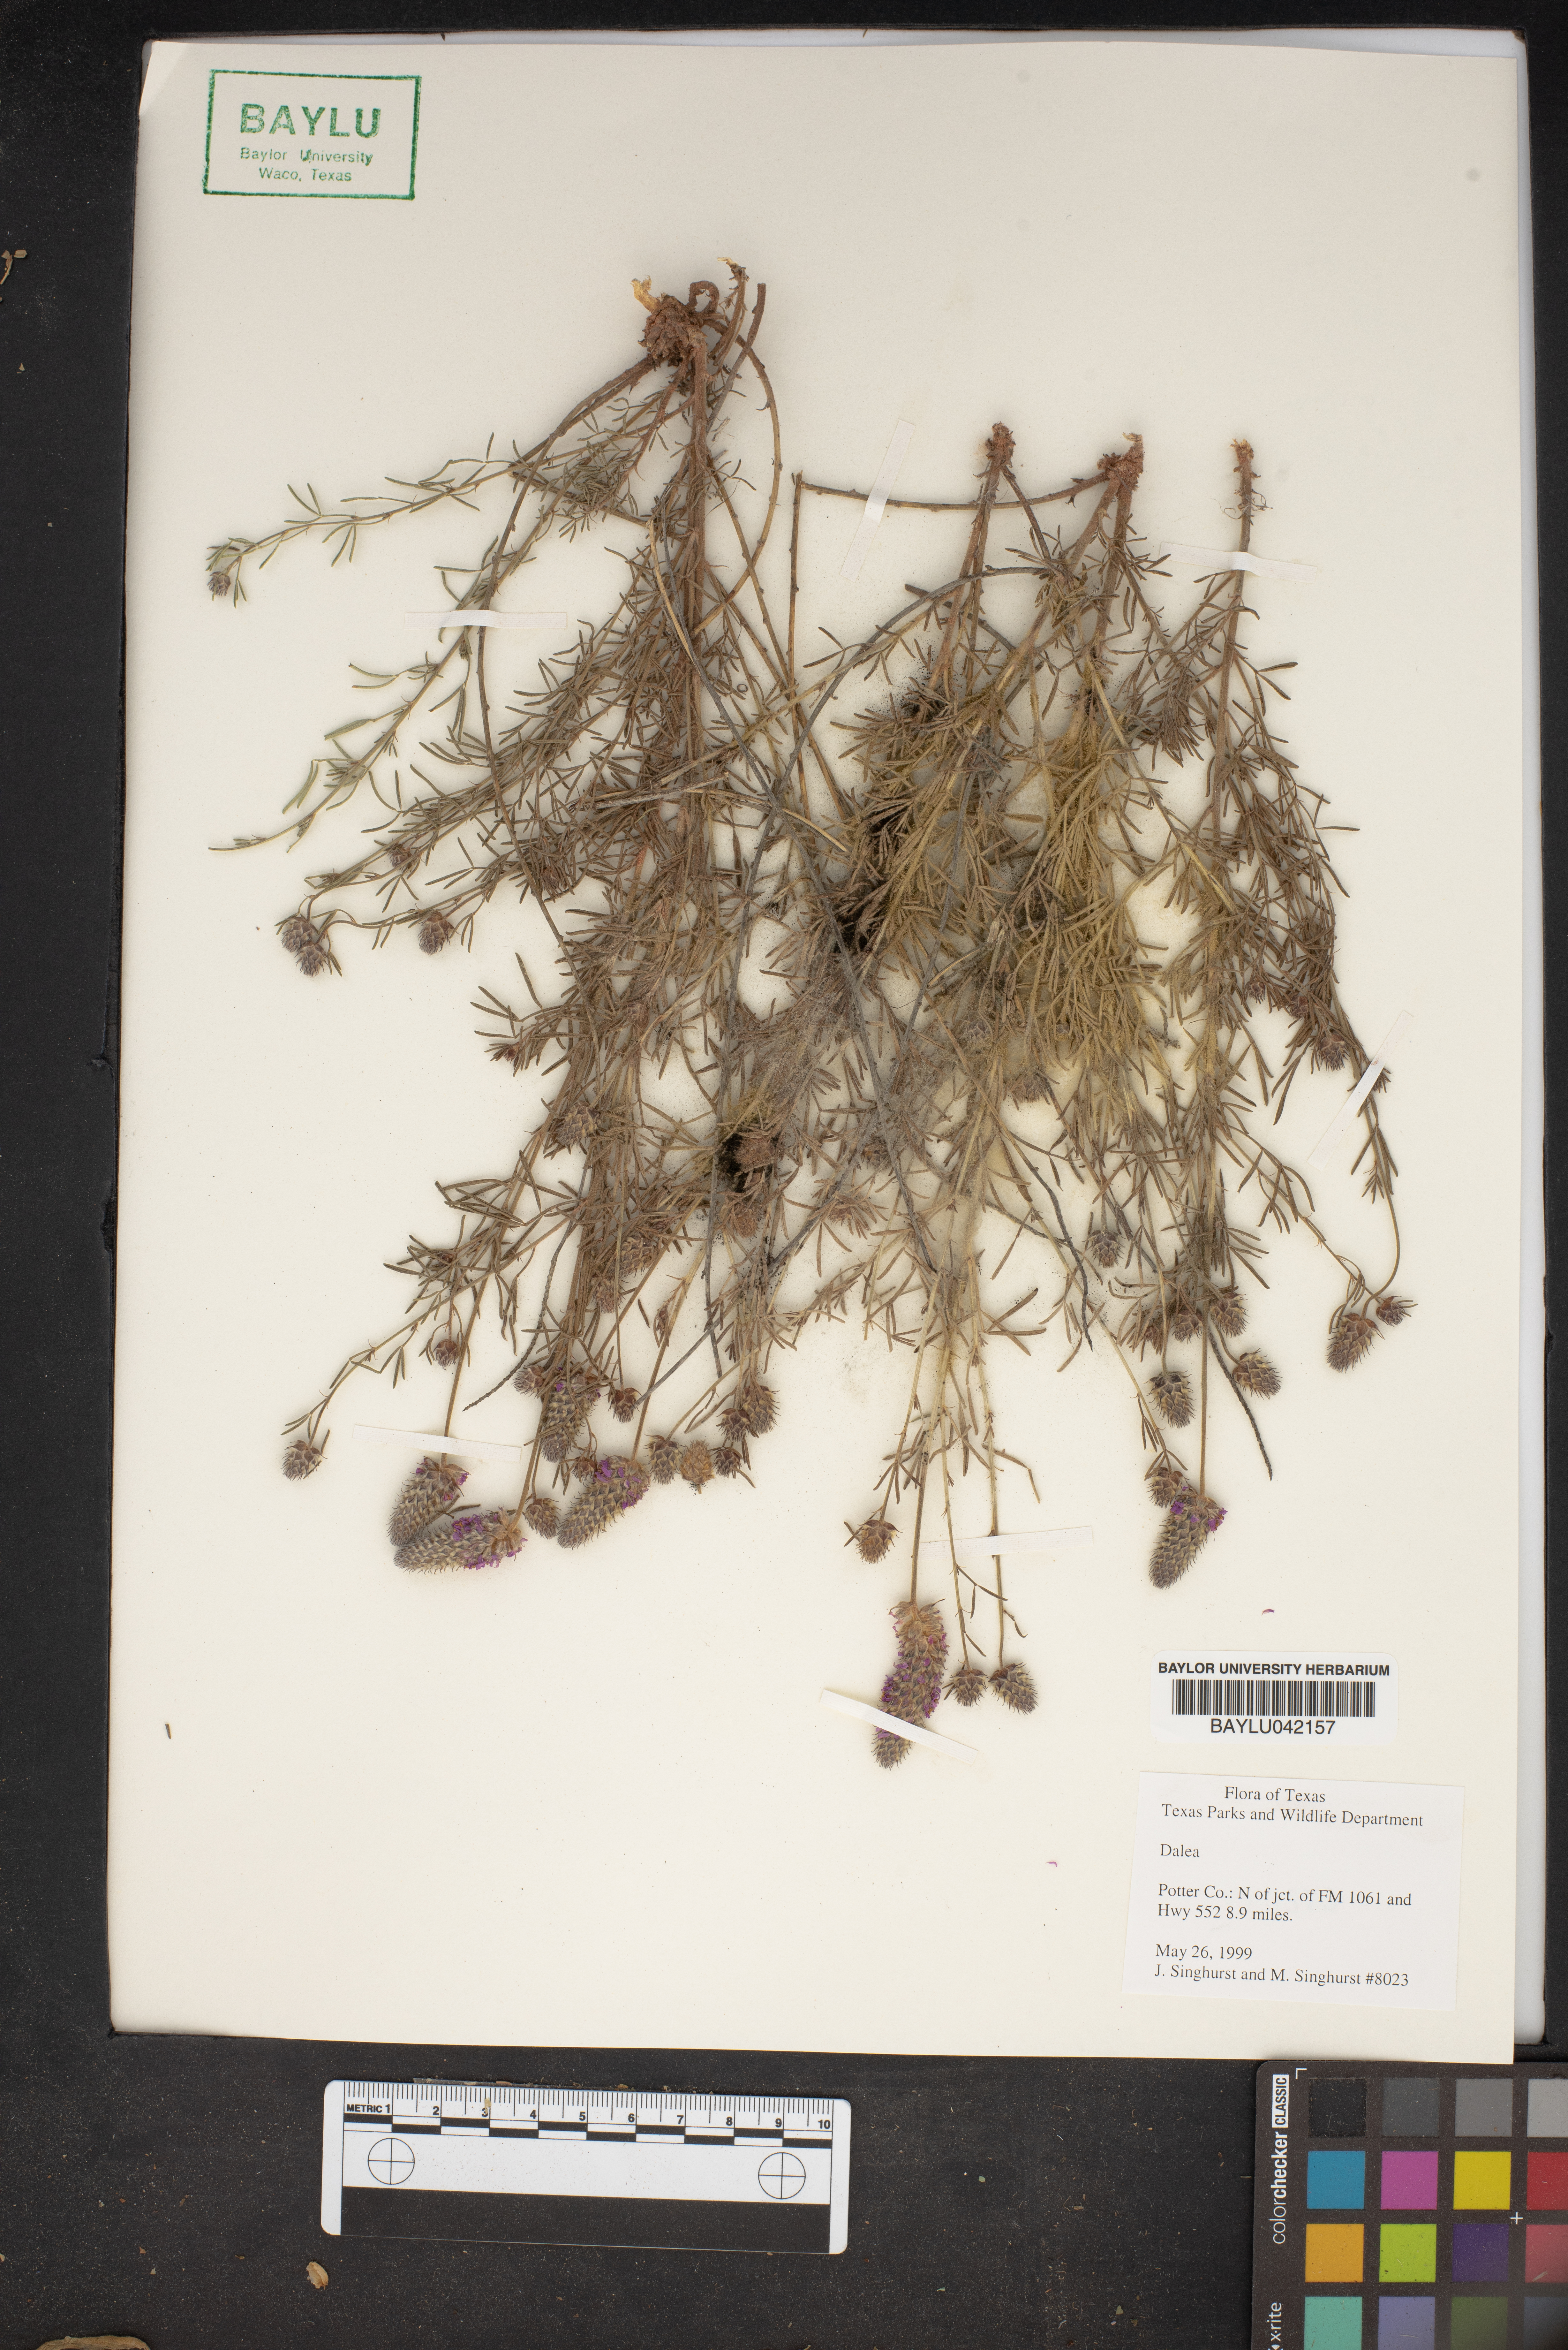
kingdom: Plantae
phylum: Tracheophyta
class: Magnoliopsida
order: Fabales
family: Fabaceae
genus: Dalea
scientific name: Dalea
